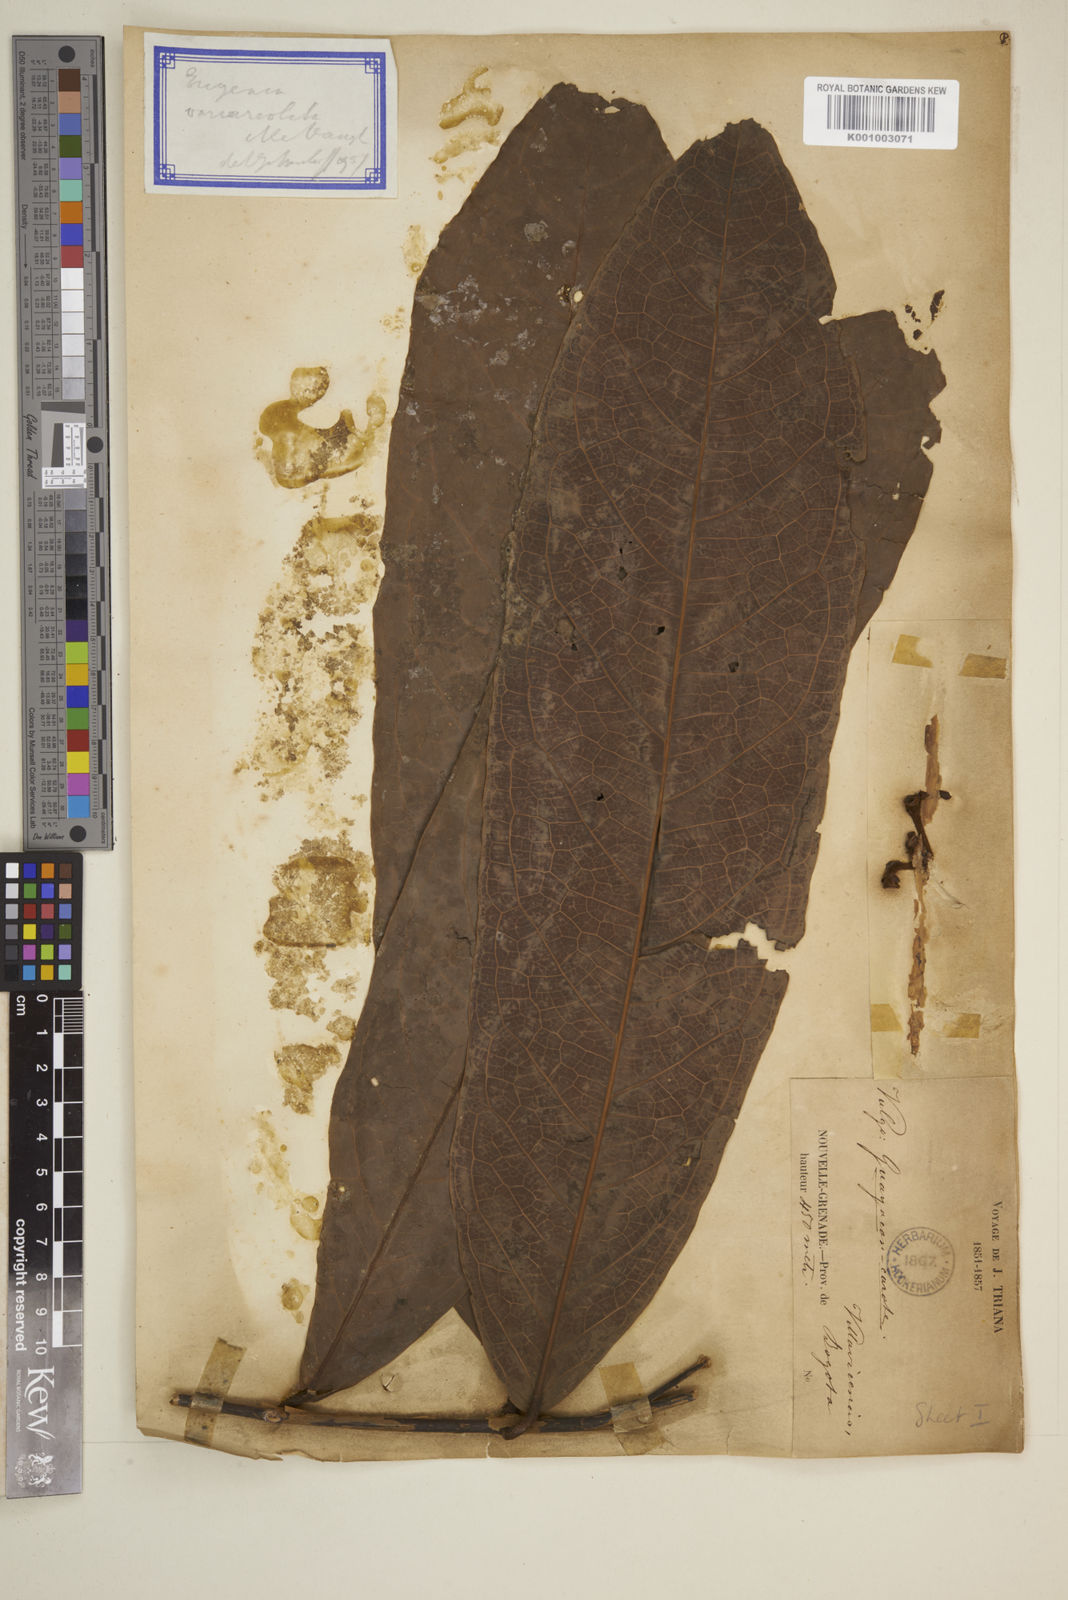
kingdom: Plantae
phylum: Tracheophyta
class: Magnoliopsida
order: Myrtales
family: Myrtaceae
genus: Eugenia
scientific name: Eugenia variareolata
